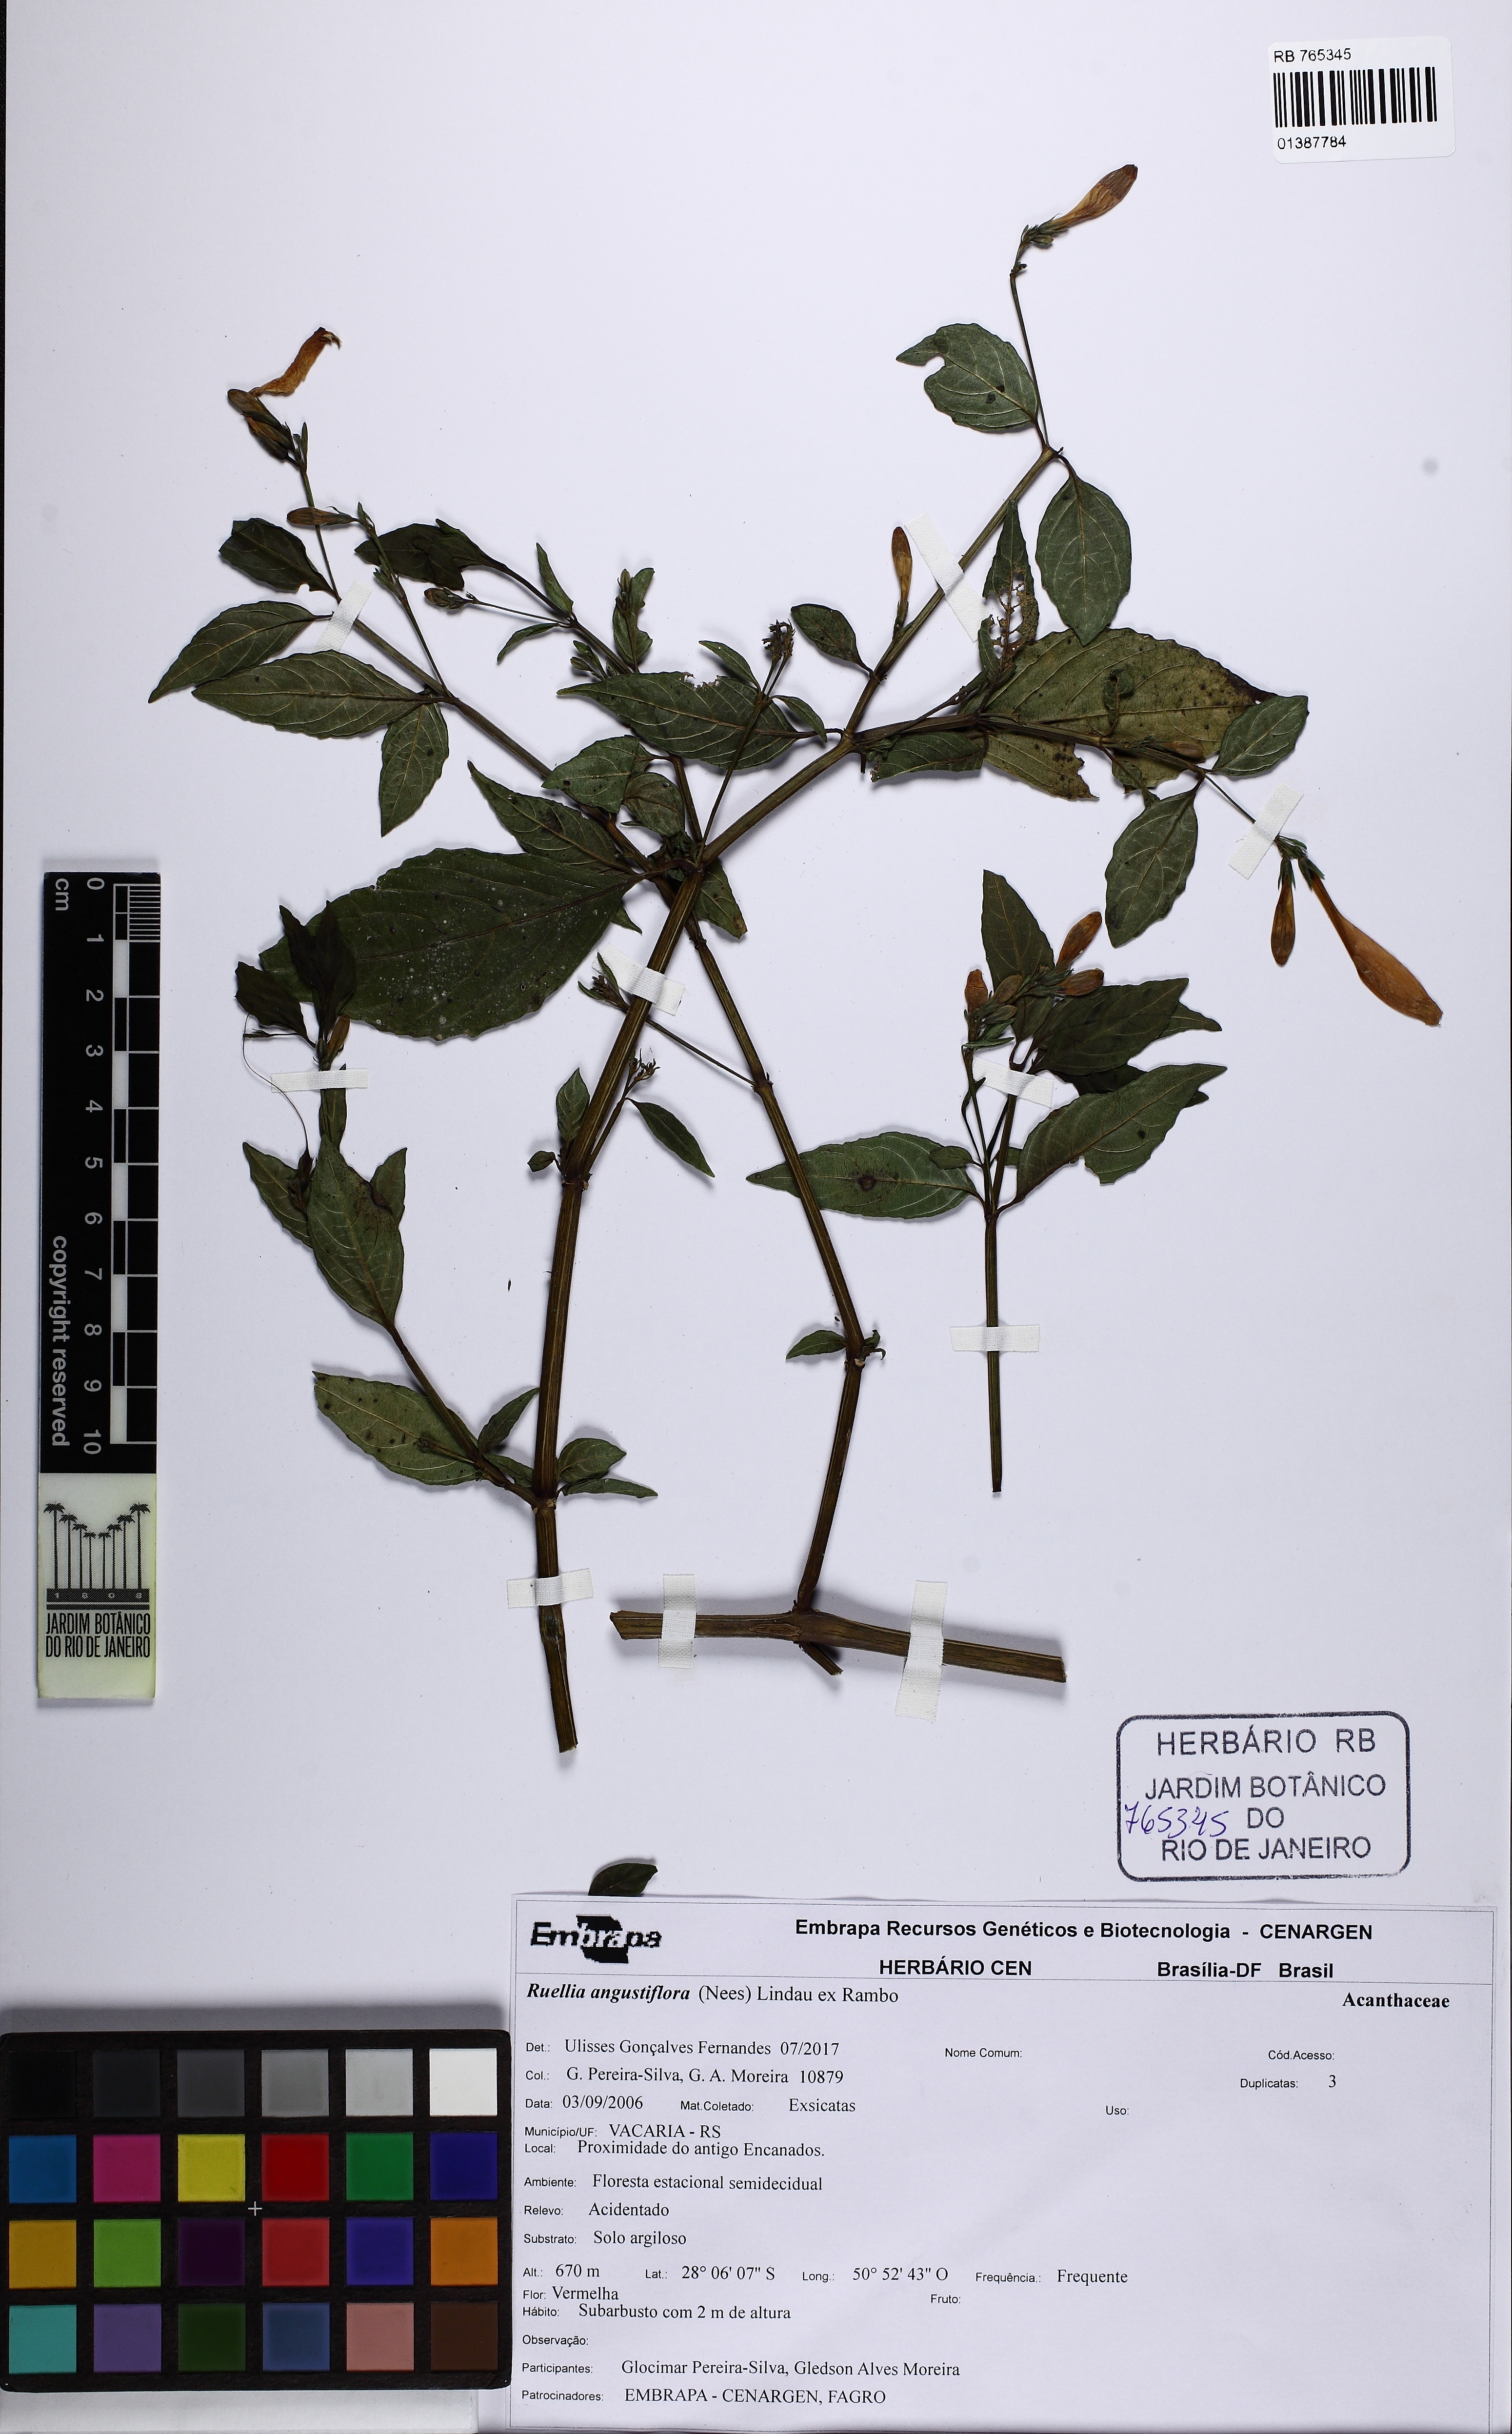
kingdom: Plantae
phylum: Tracheophyta
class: Magnoliopsida
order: Lamiales
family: Acanthaceae
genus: Ruellia
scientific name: Ruellia angustiflora
